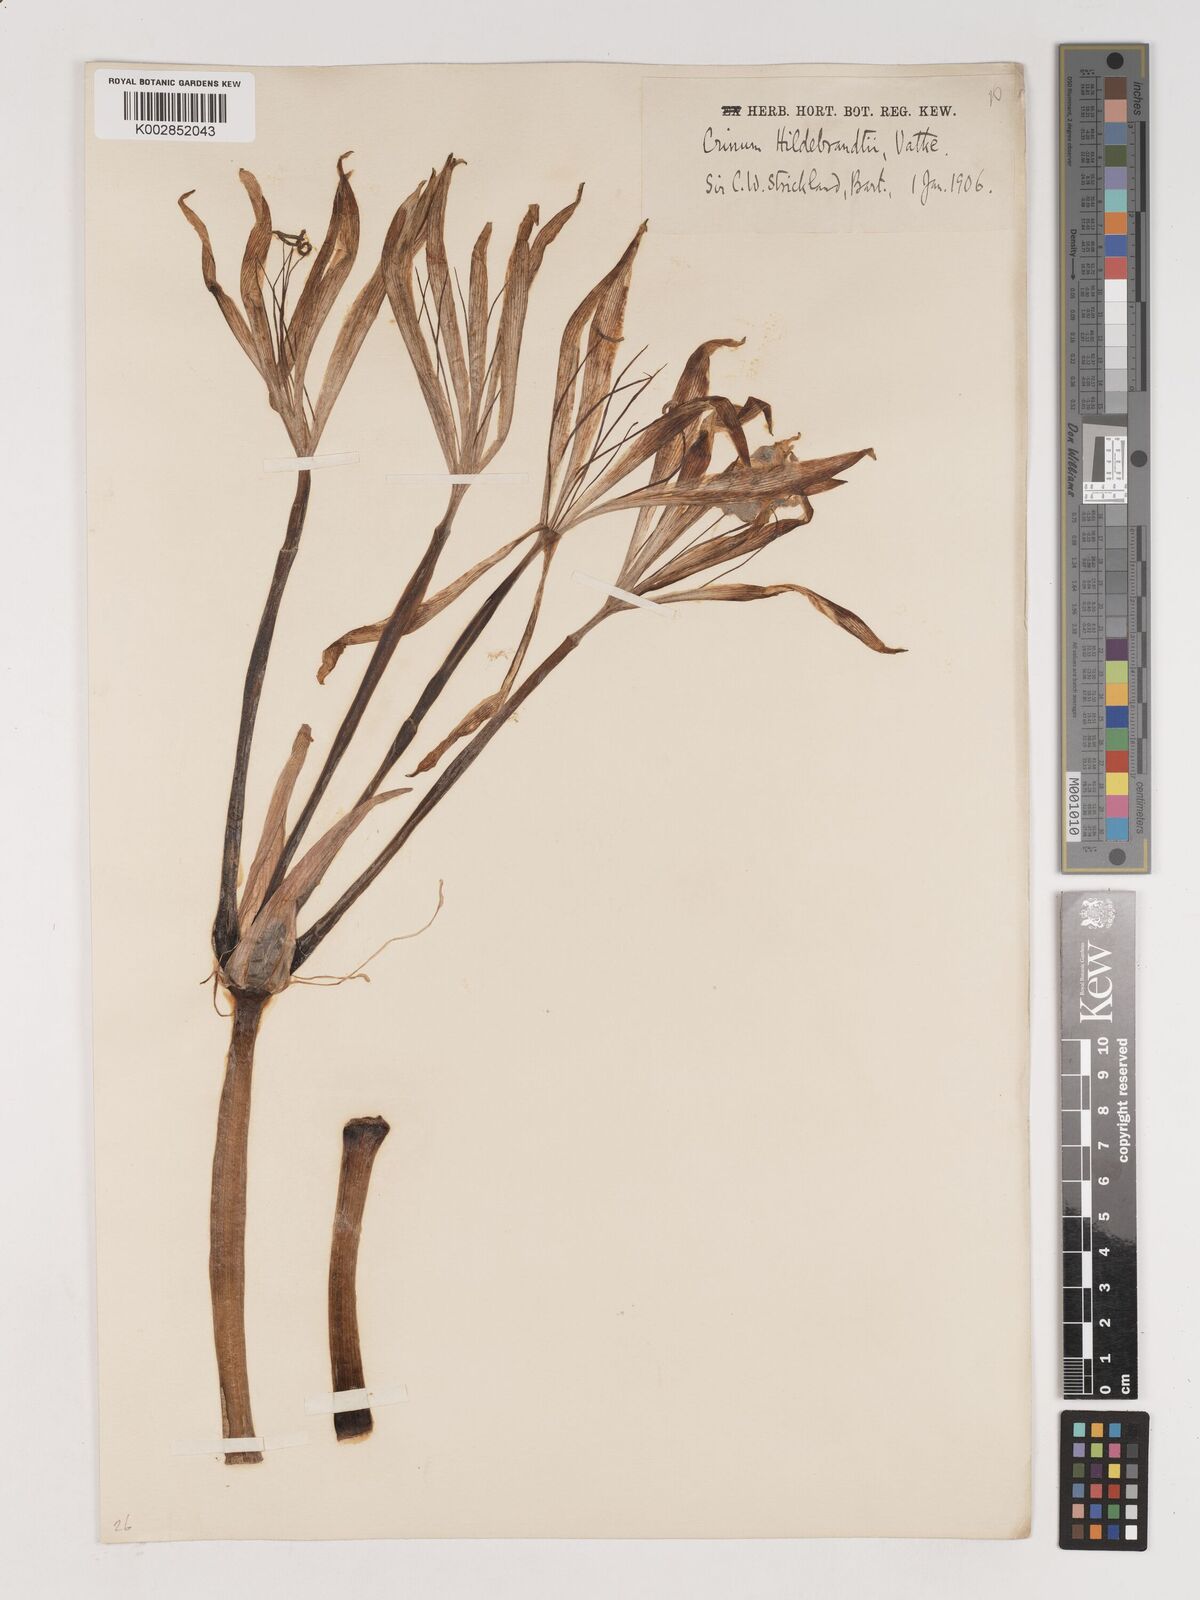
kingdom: Plantae
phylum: Tracheophyta
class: Liliopsida
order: Asparagales
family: Amaryllidaceae
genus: Crinum
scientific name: Crinum hildebrandtii
